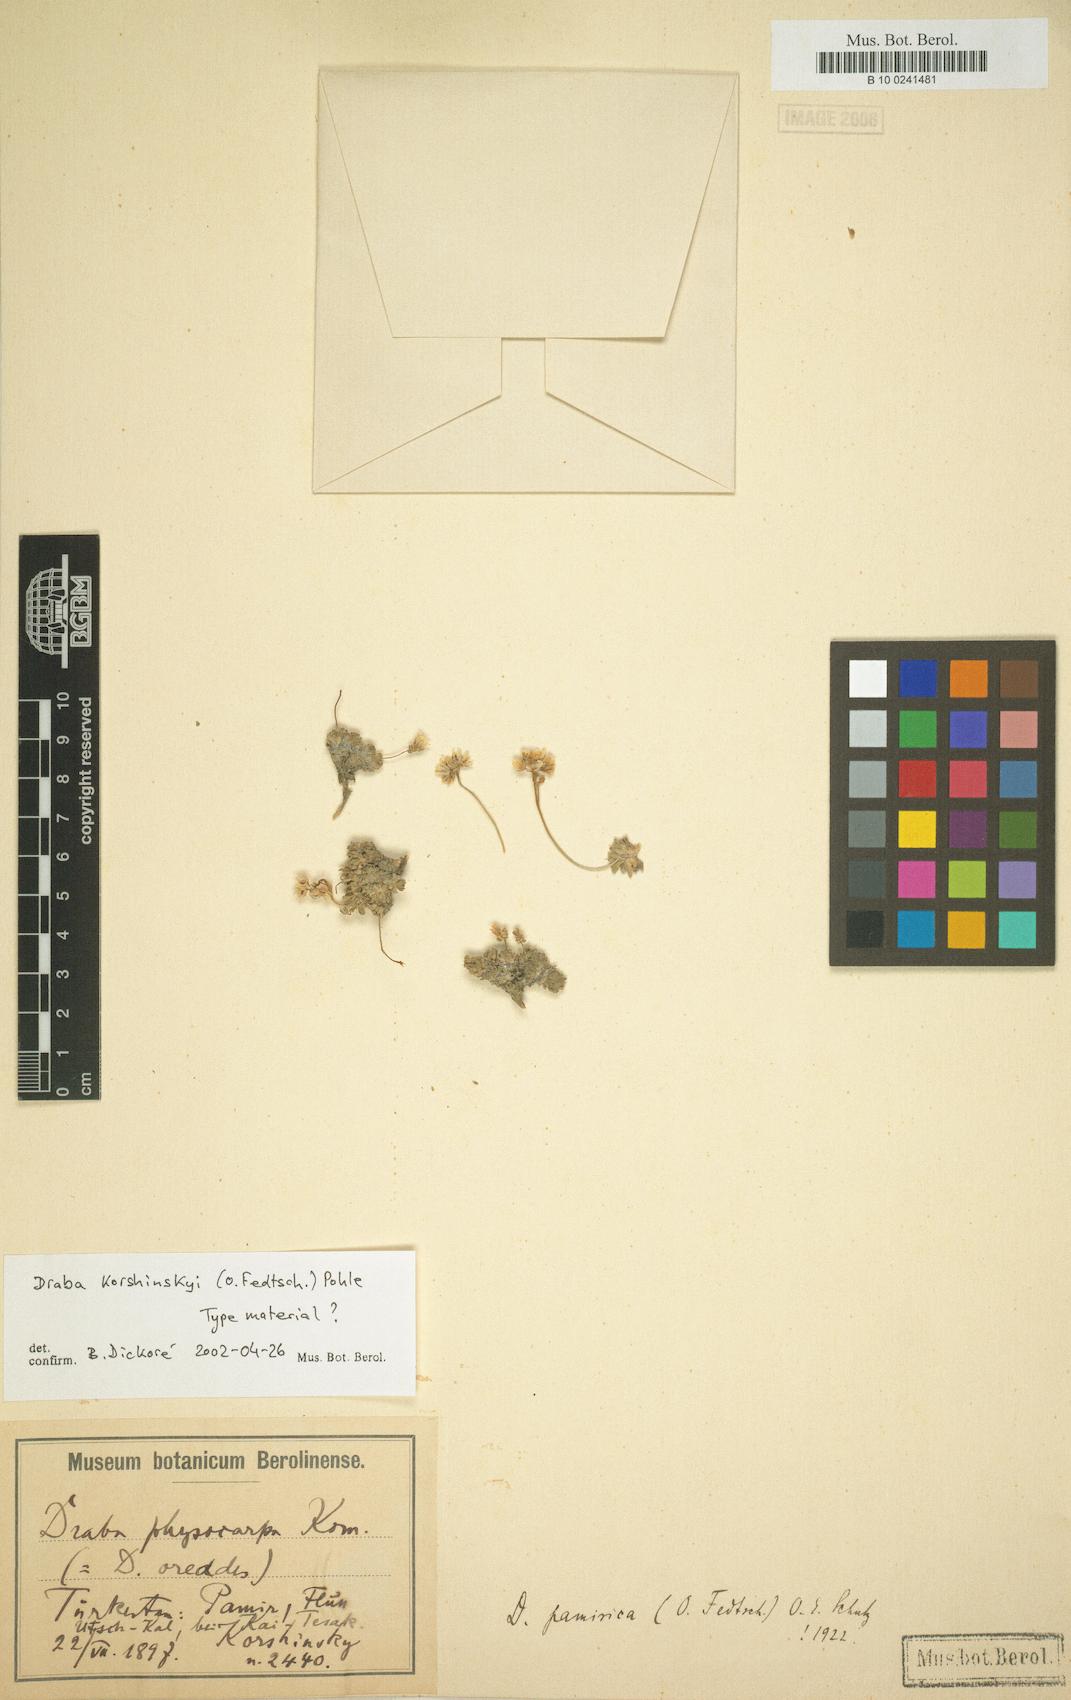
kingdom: Plantae
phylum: Tracheophyta
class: Magnoliopsida
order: Brassicales
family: Brassicaceae
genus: Draba
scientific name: Draba korshinskyi
